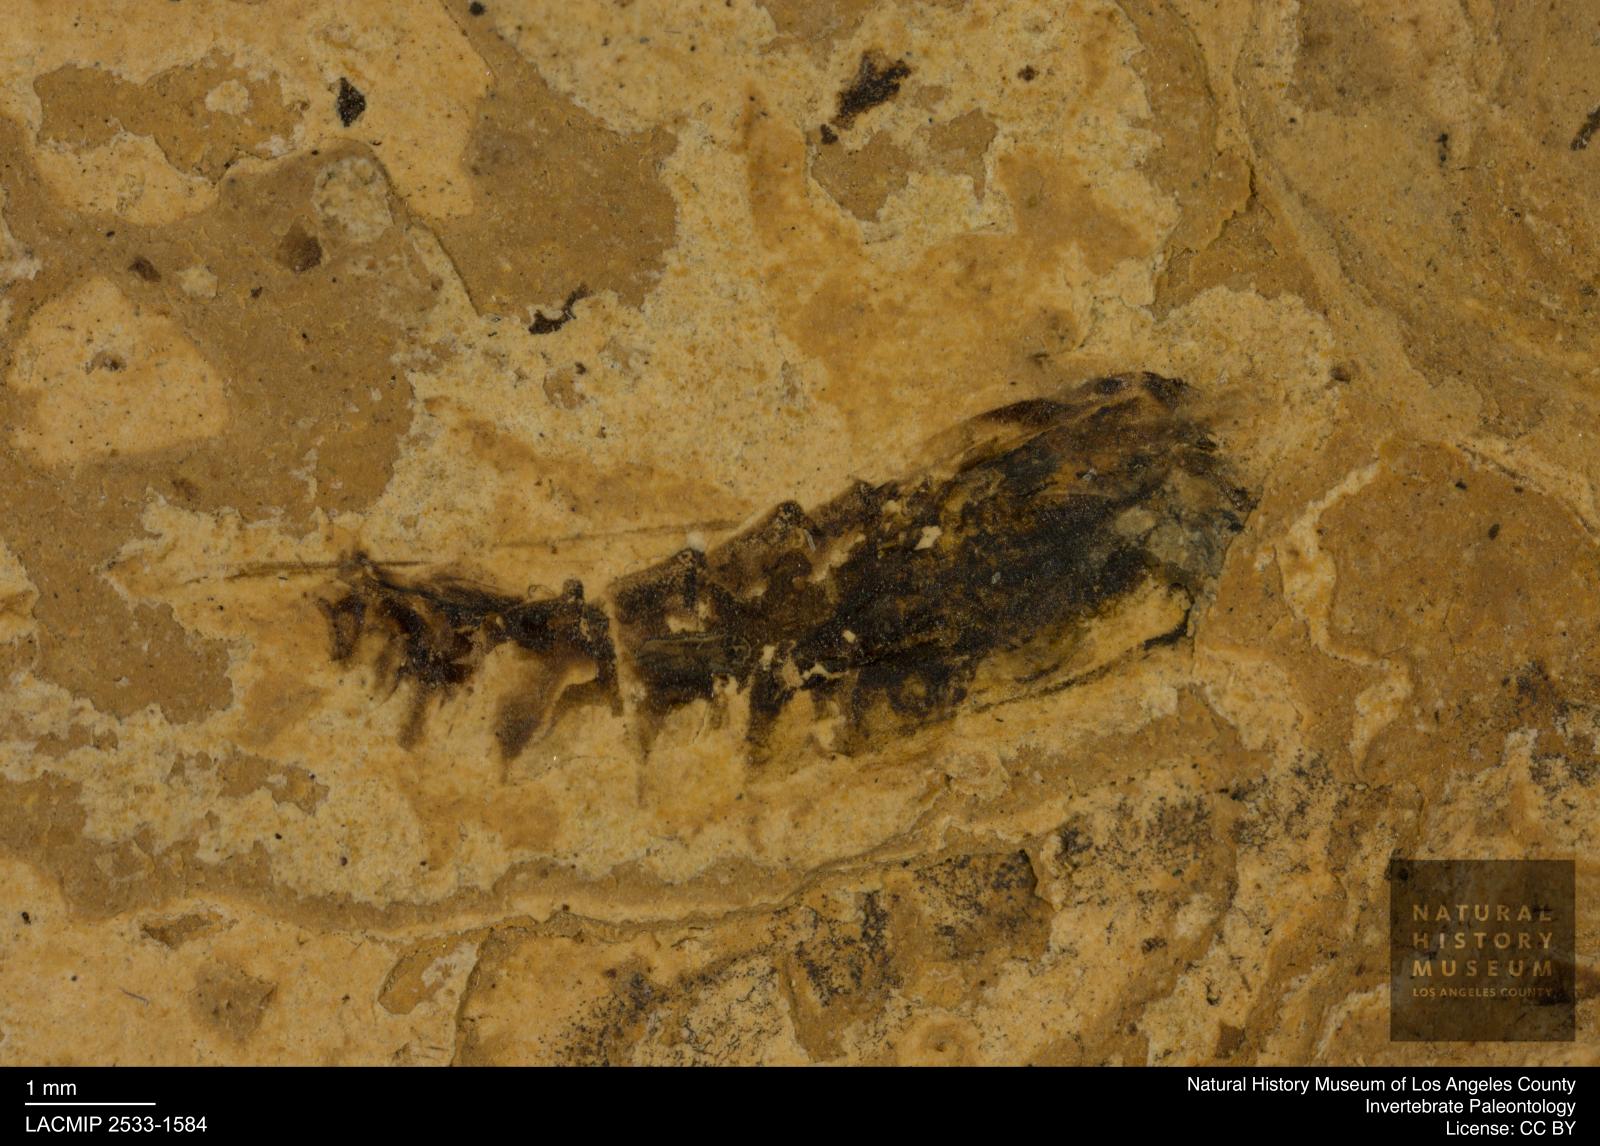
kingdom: Animalia
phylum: Arthropoda
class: Insecta
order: Hemiptera
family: Notonectidae
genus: Notonecta
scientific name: Notonecta
